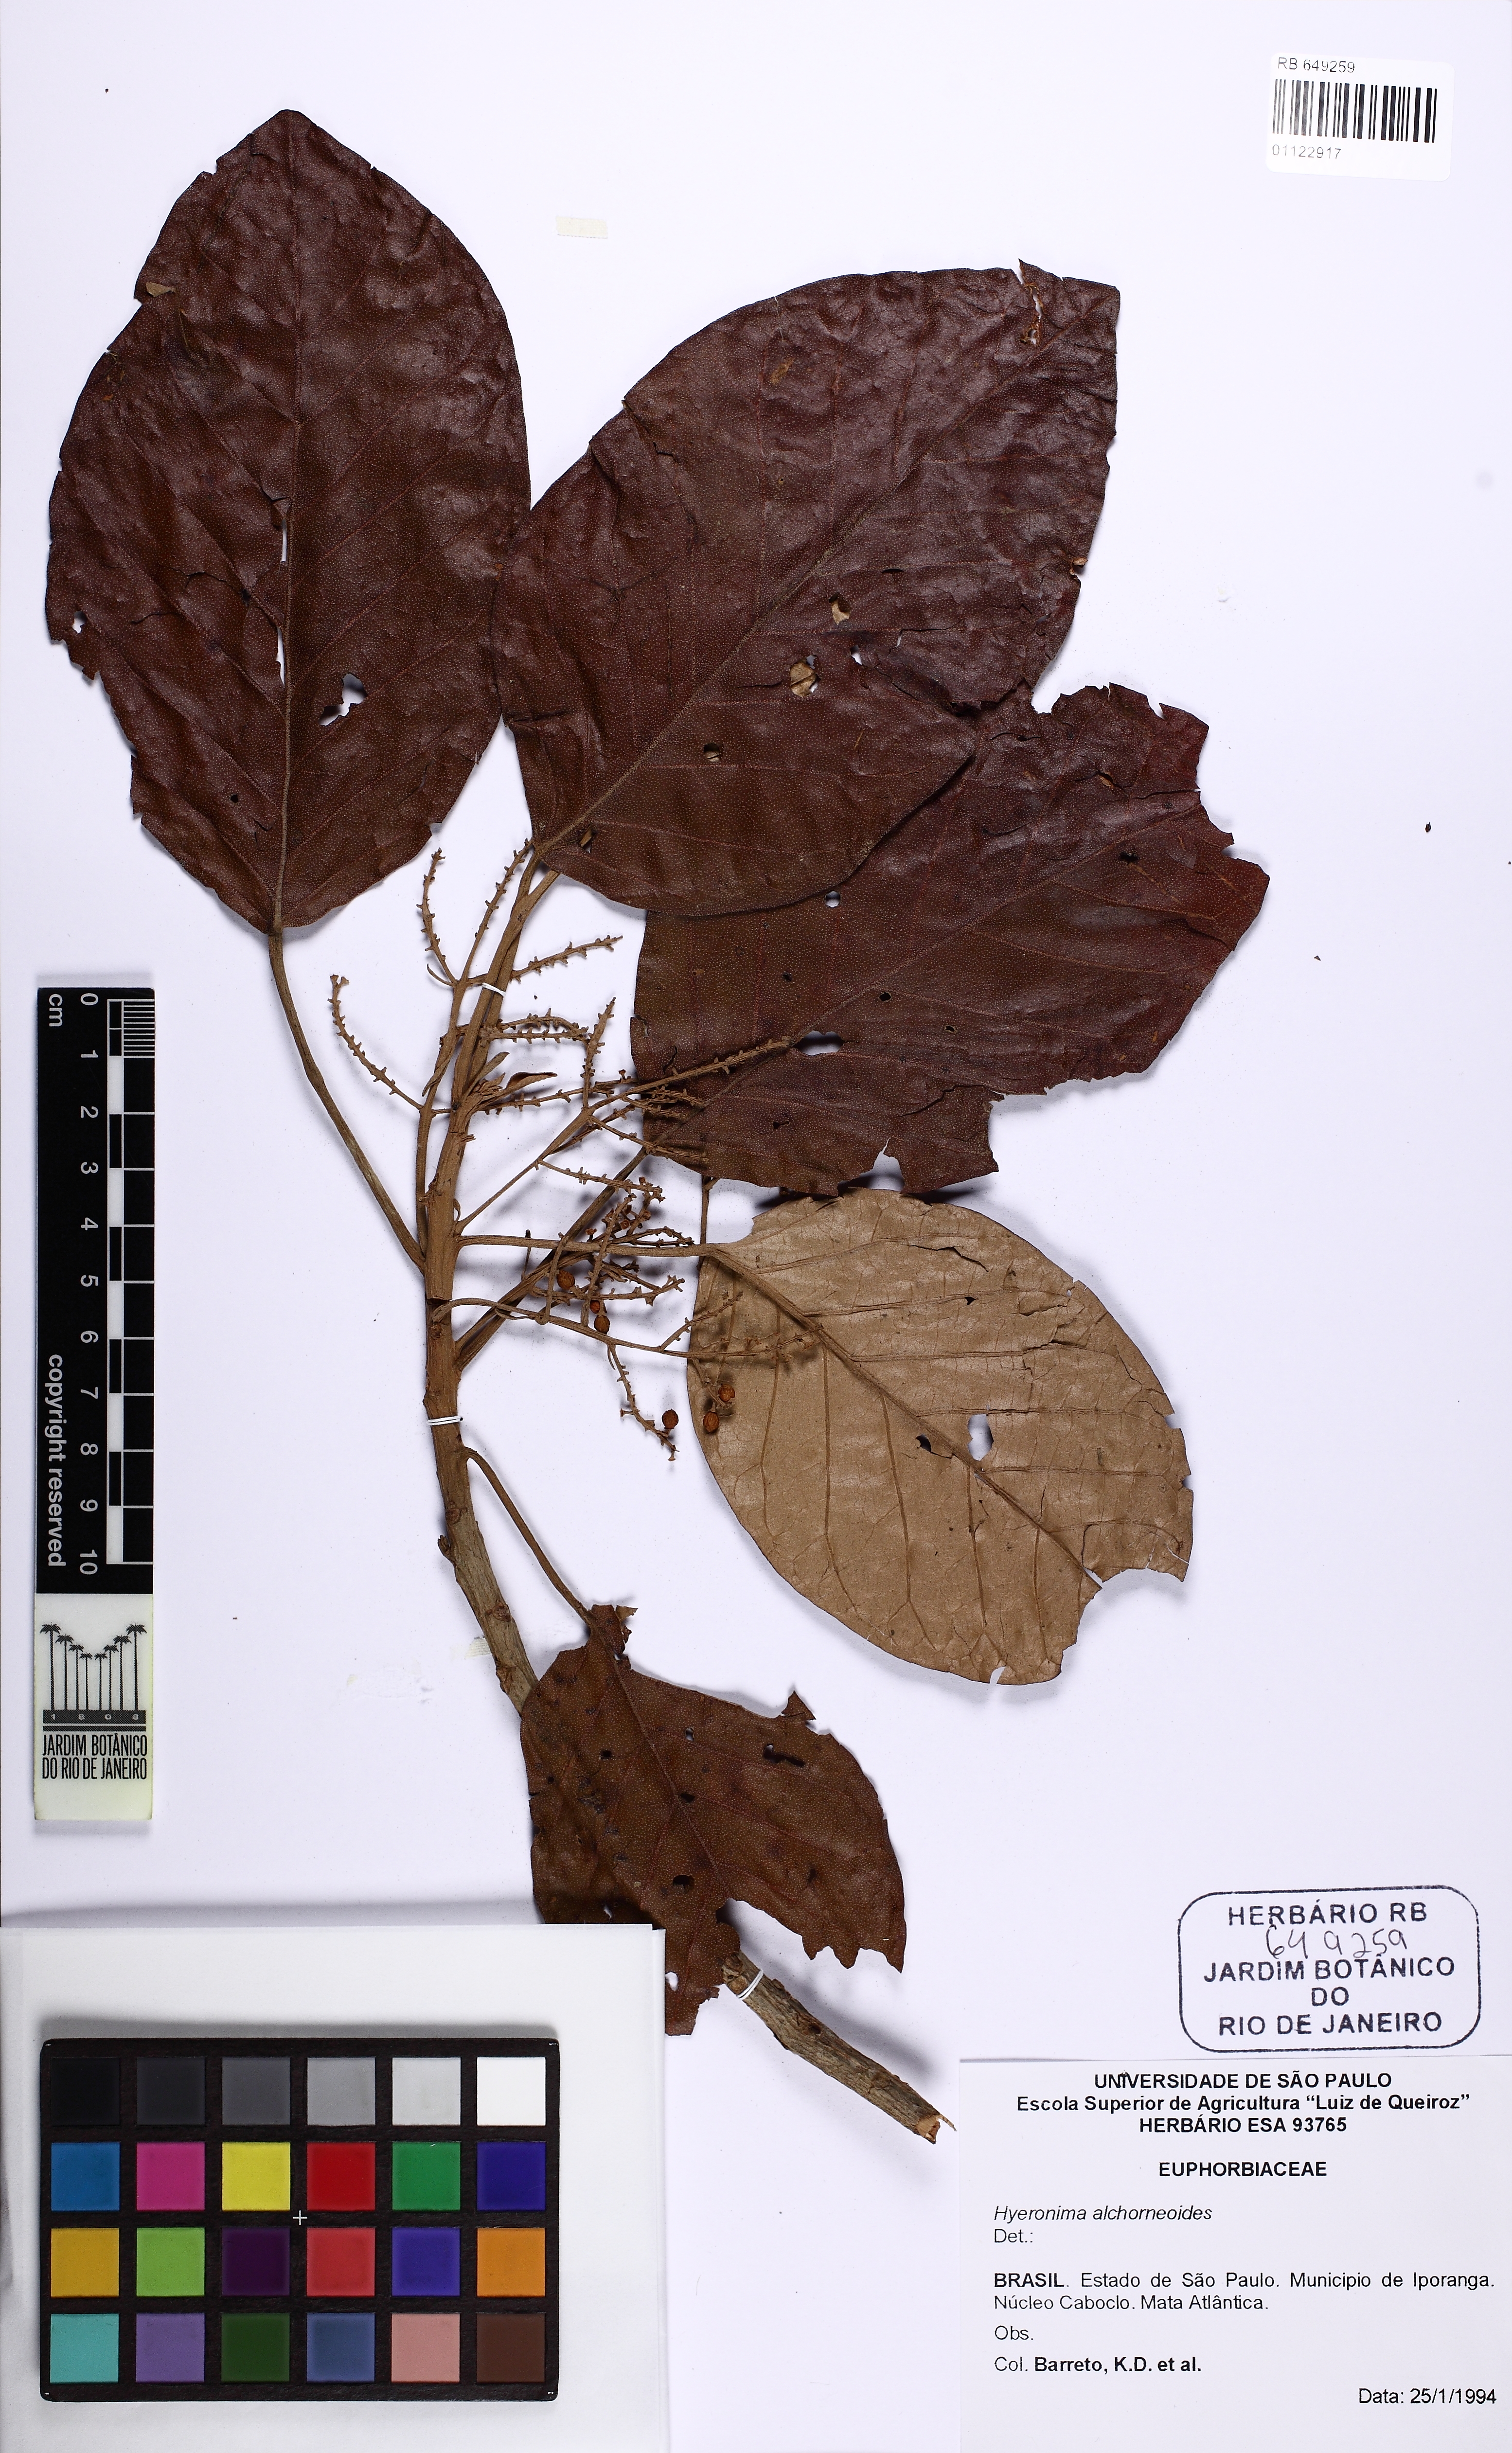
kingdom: Plantae
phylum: Tracheophyta
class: Magnoliopsida
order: Malpighiales
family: Phyllanthaceae
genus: Hieronyma
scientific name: Hieronyma alchorneoides
